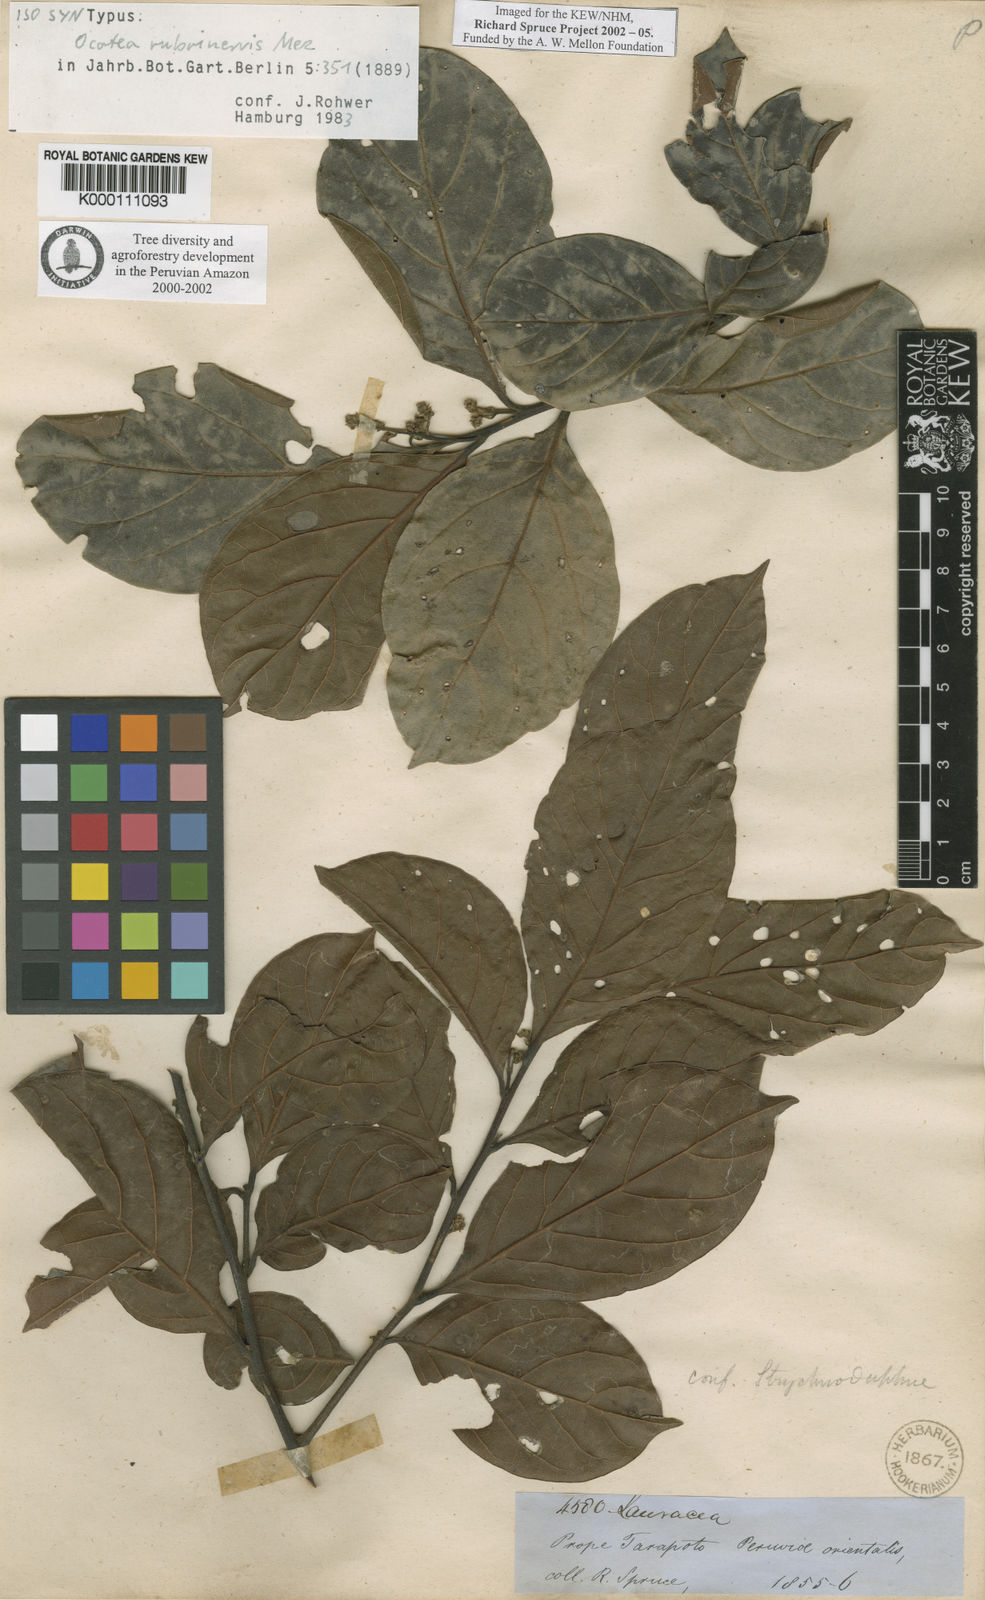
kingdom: Plantae
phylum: Tracheophyta
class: Magnoliopsida
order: Laurales
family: Lauraceae
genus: Ocotea
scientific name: Ocotea rubrinervis
